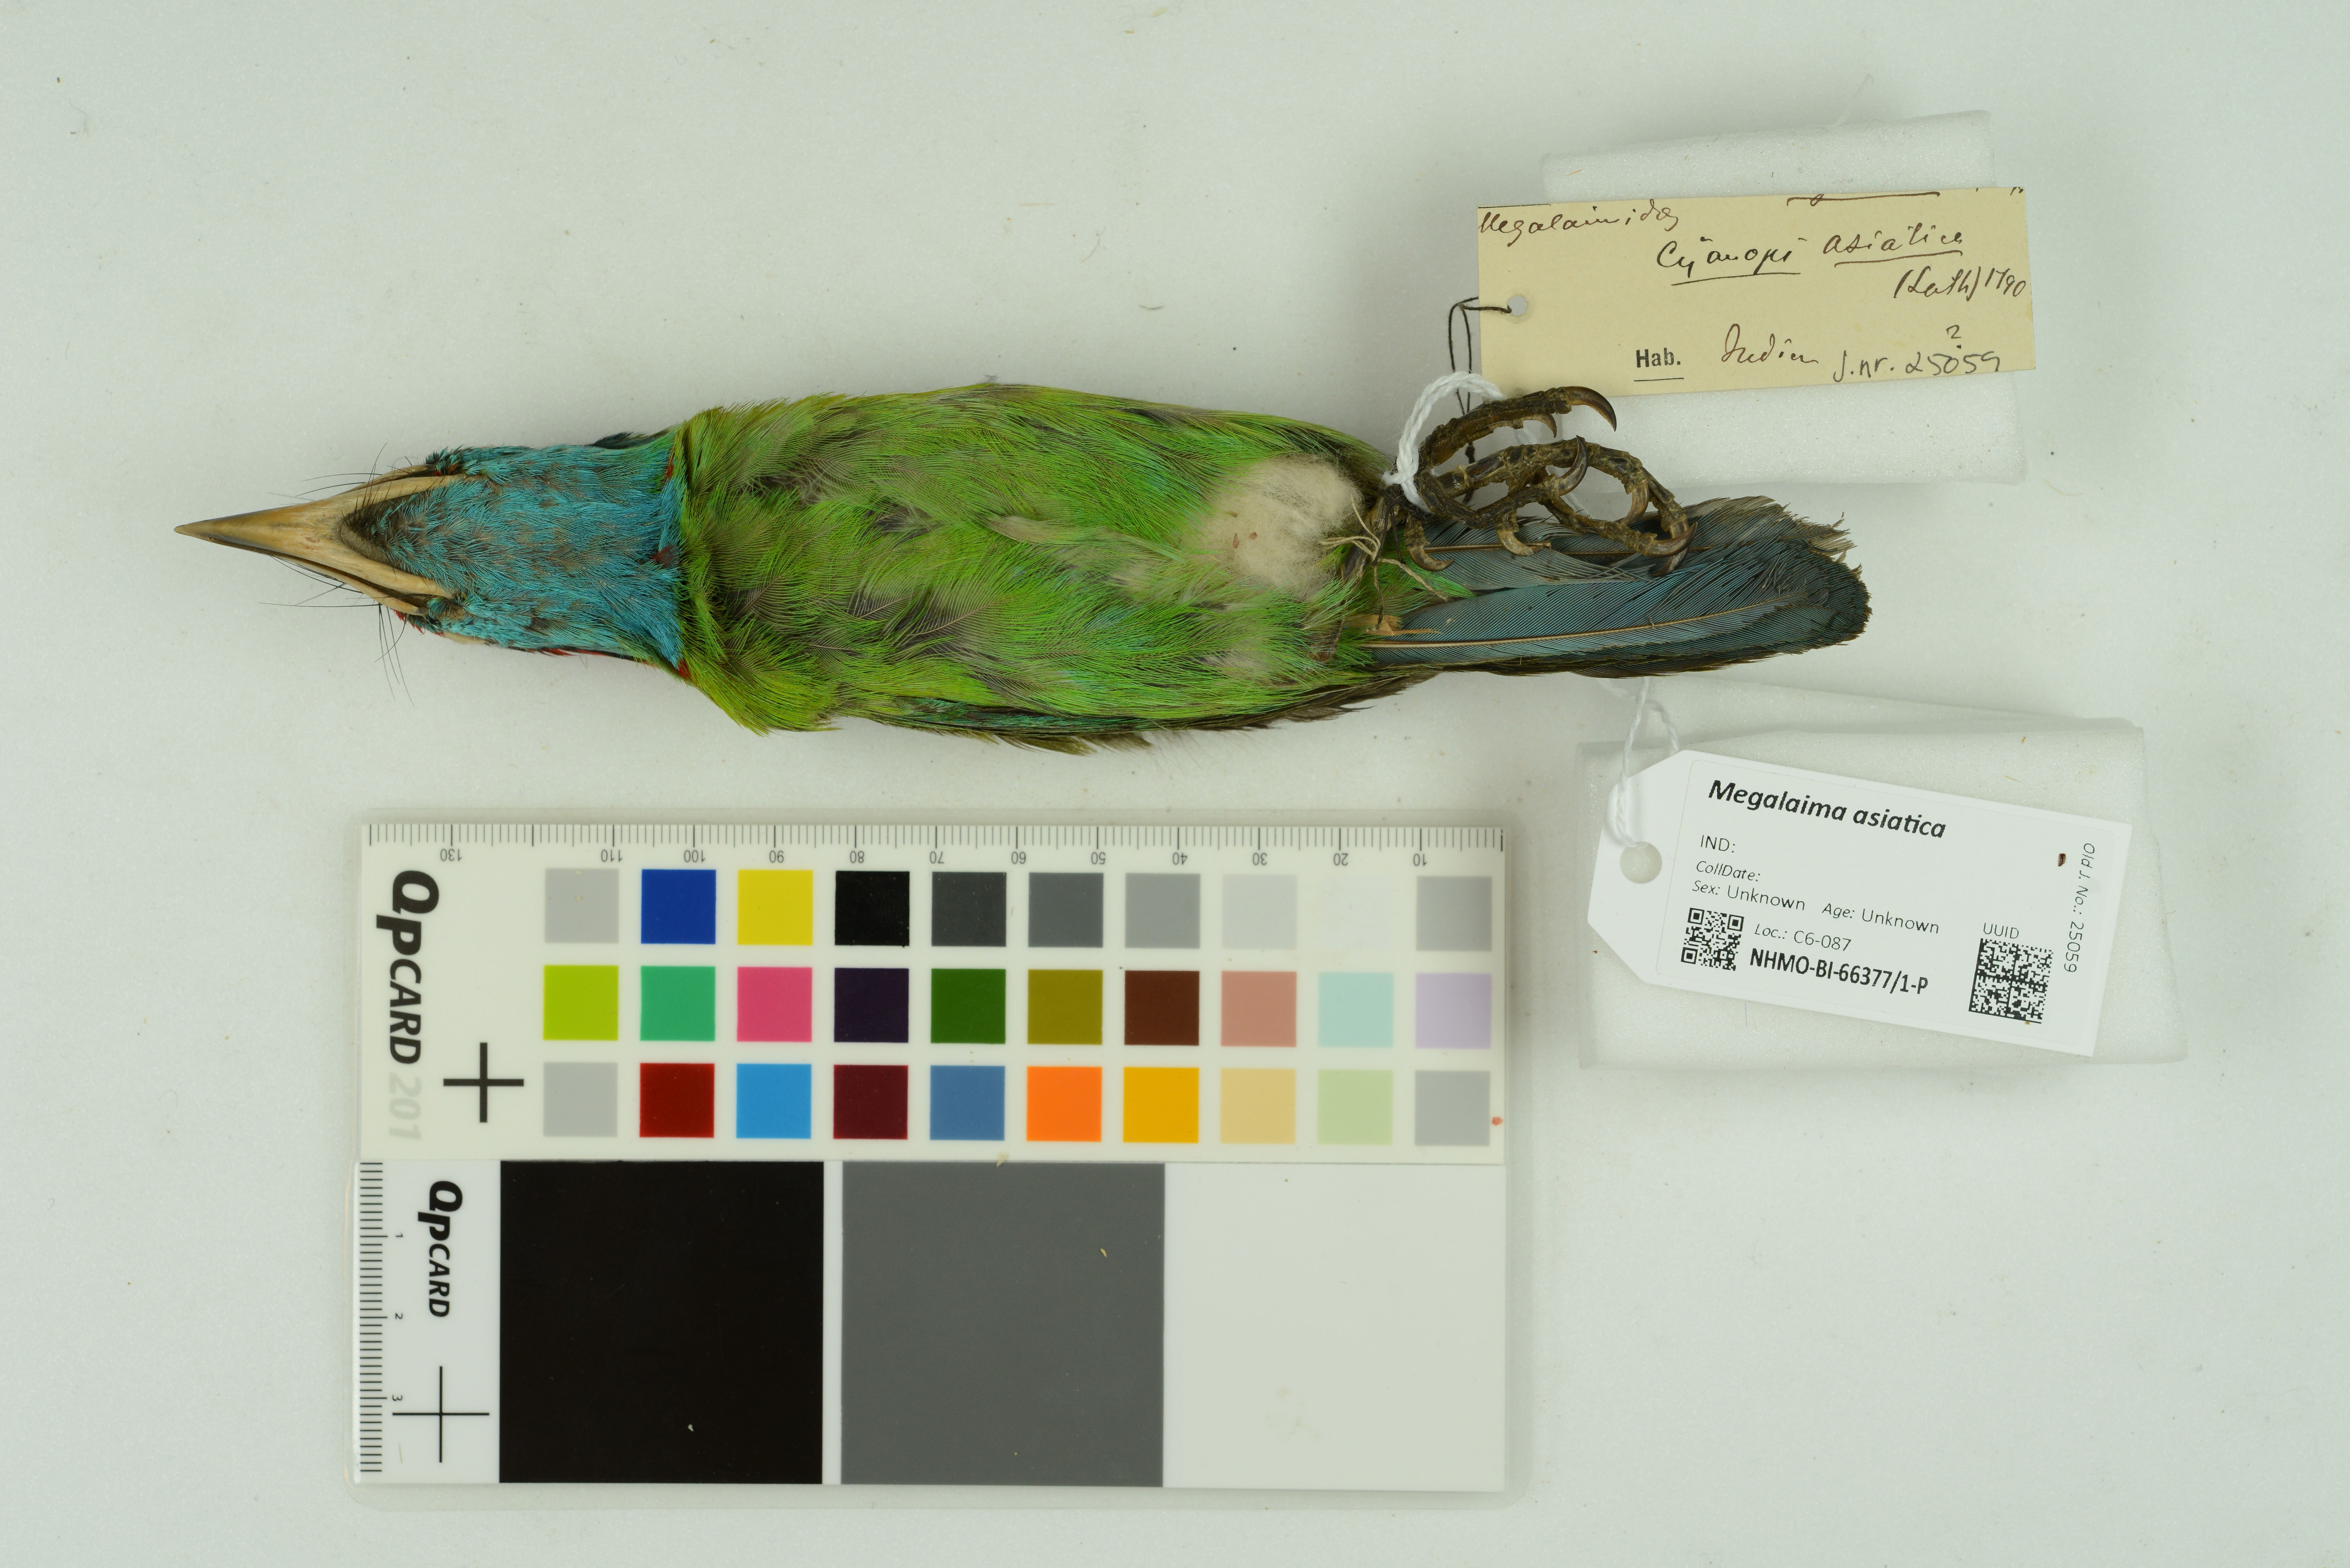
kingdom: Animalia
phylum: Chordata
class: Aves
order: Piciformes
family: Megalaimidae
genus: Psilopogon
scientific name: Psilopogon asiaticus
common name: Blue-throated barbet
